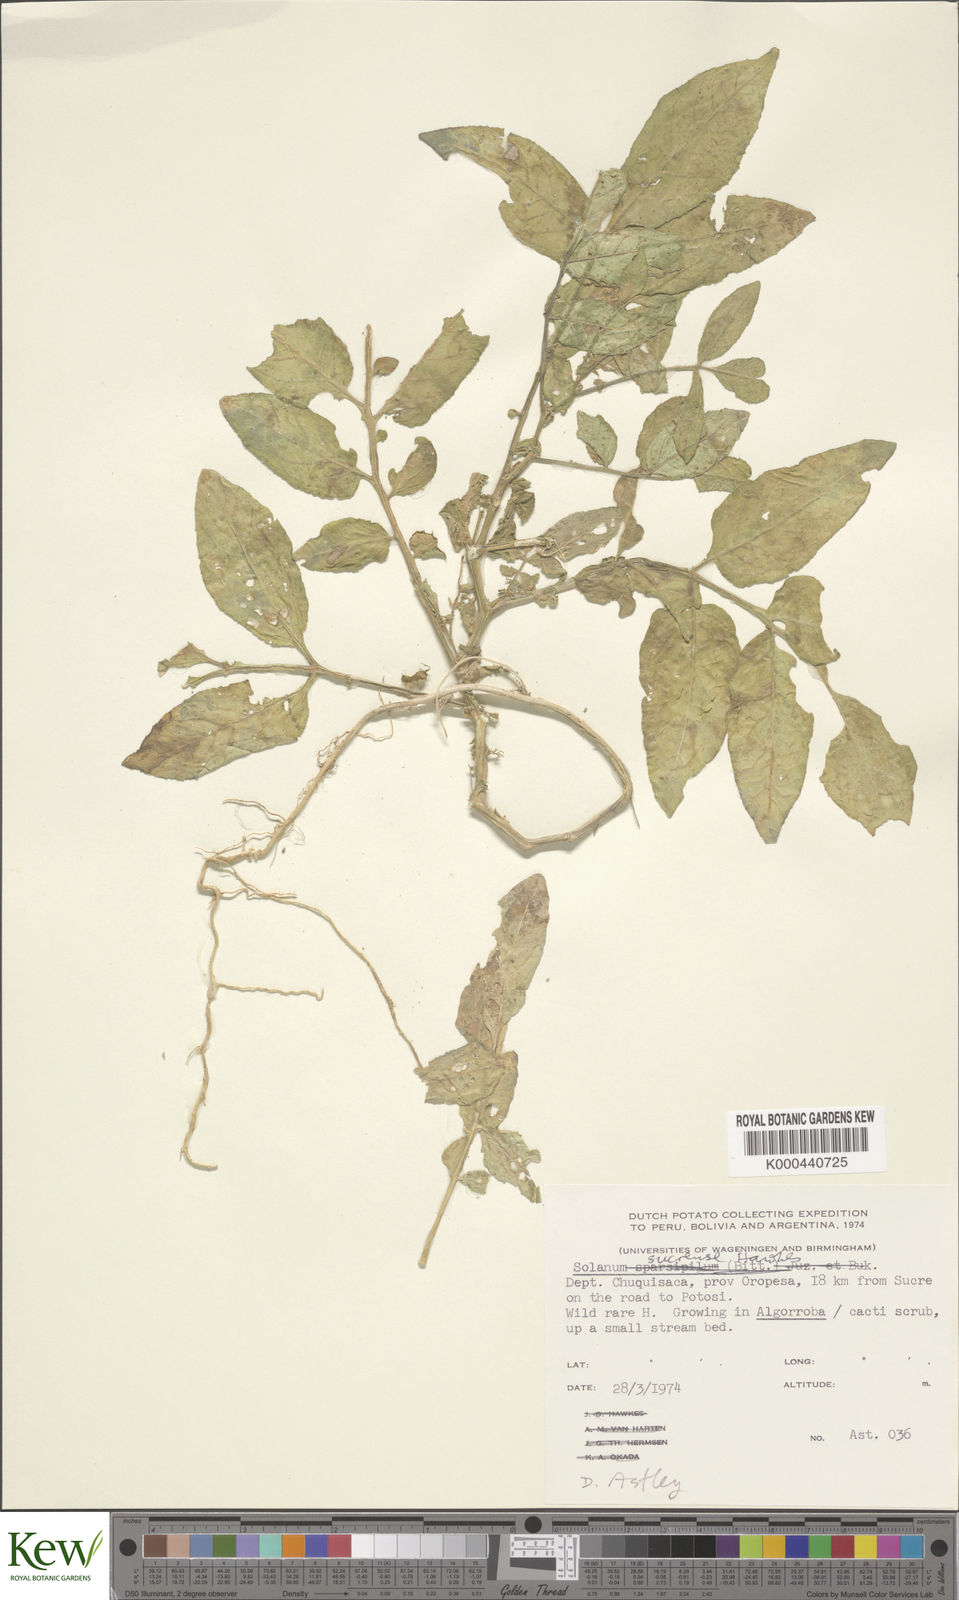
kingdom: Plantae
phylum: Tracheophyta
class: Magnoliopsida
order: Solanales
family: Solanaceae
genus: Solanum
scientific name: Solanum brevicaule
